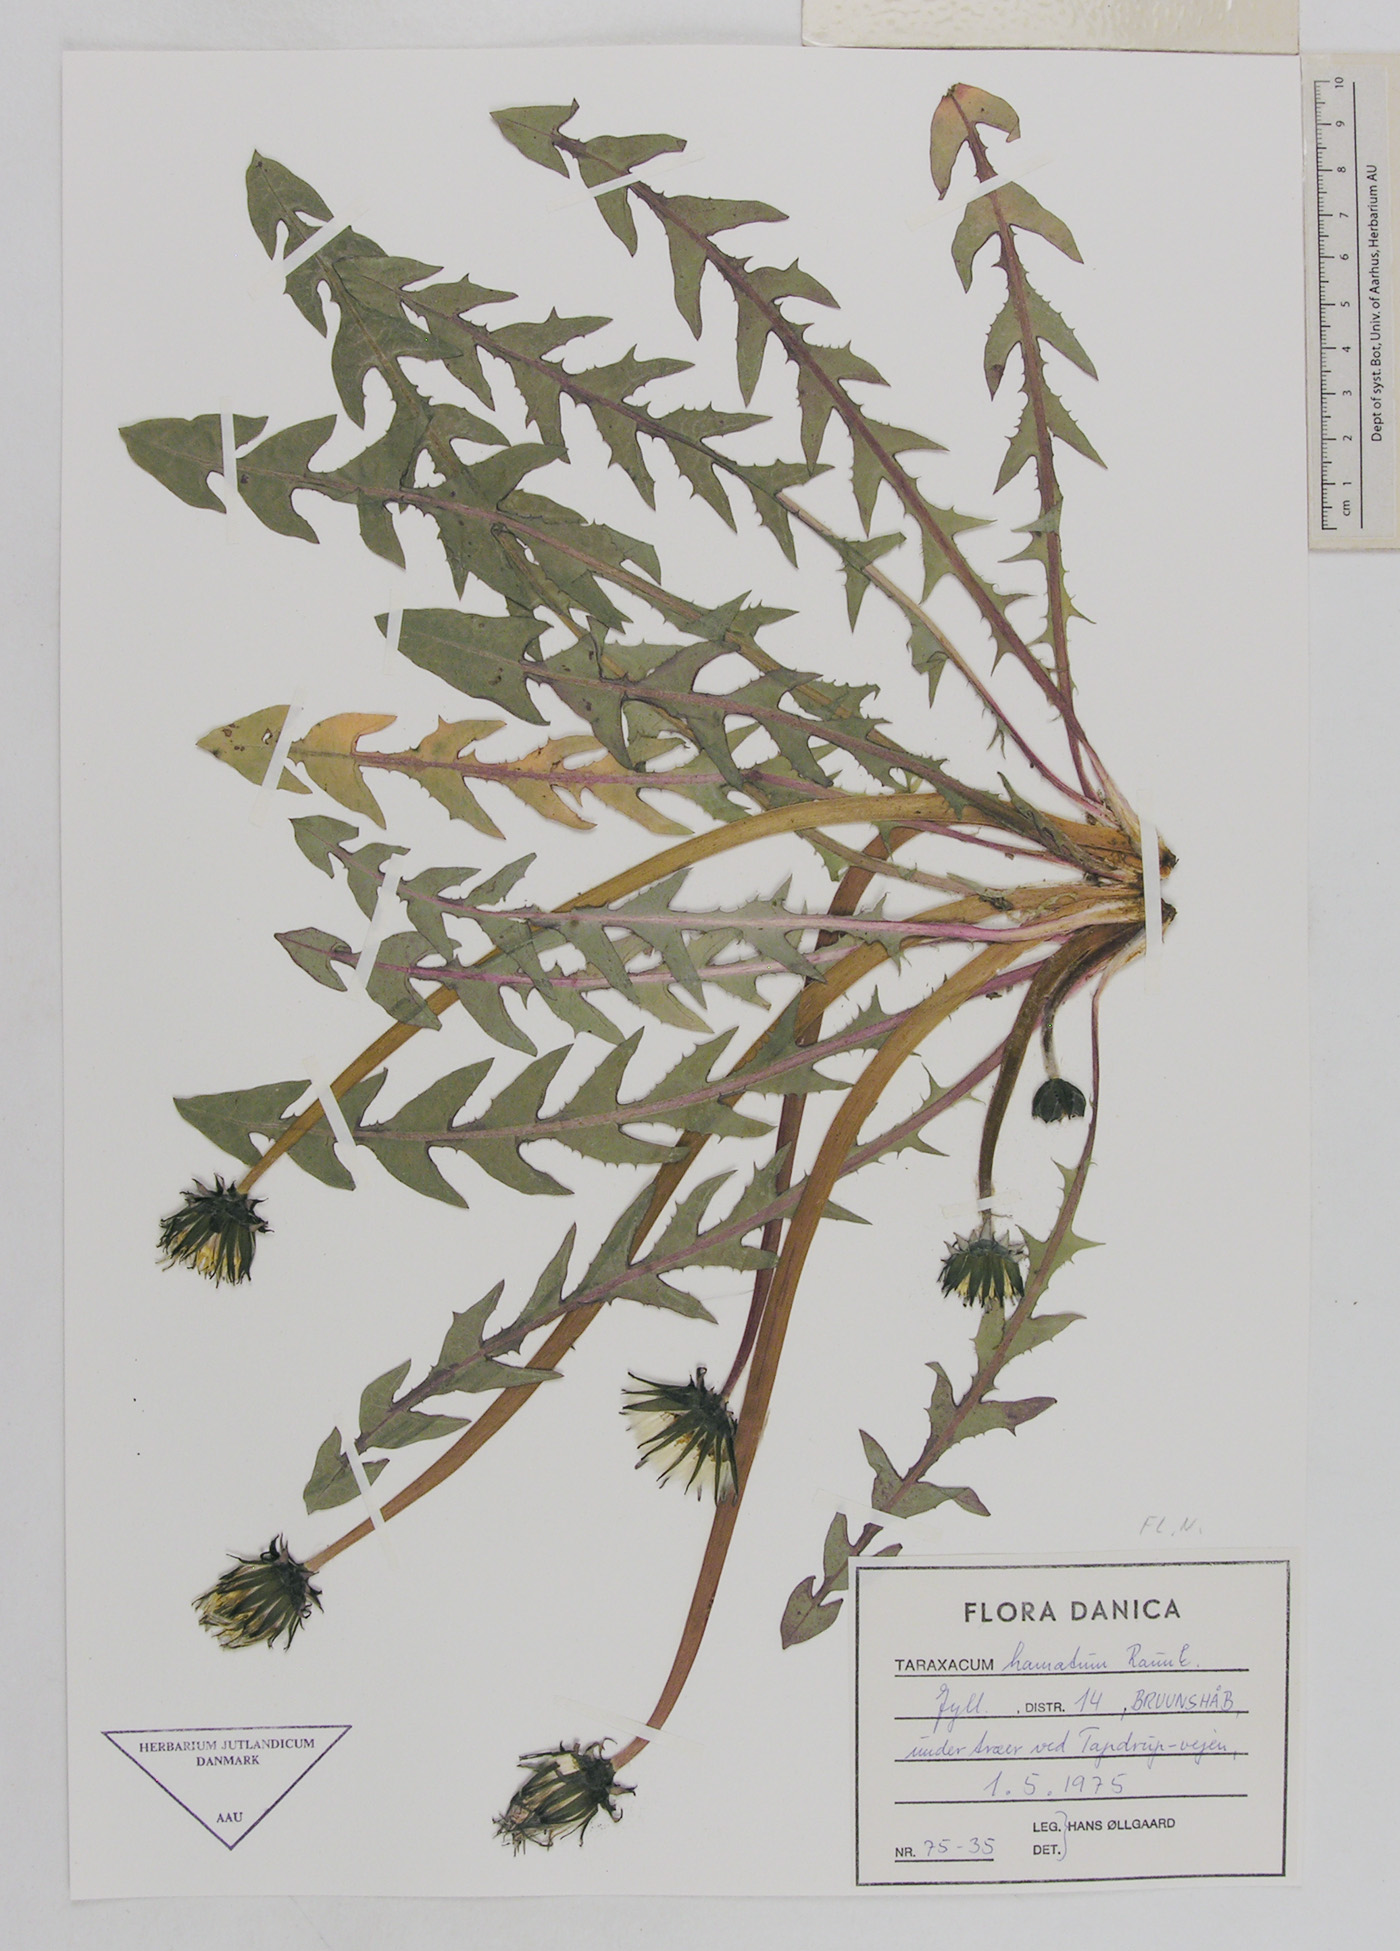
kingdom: Plantae
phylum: Tracheophyta
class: Magnoliopsida
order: Asterales
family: Asteraceae
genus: Taraxacum
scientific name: Taraxacum hamatum
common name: Hook-lobed dandelion
